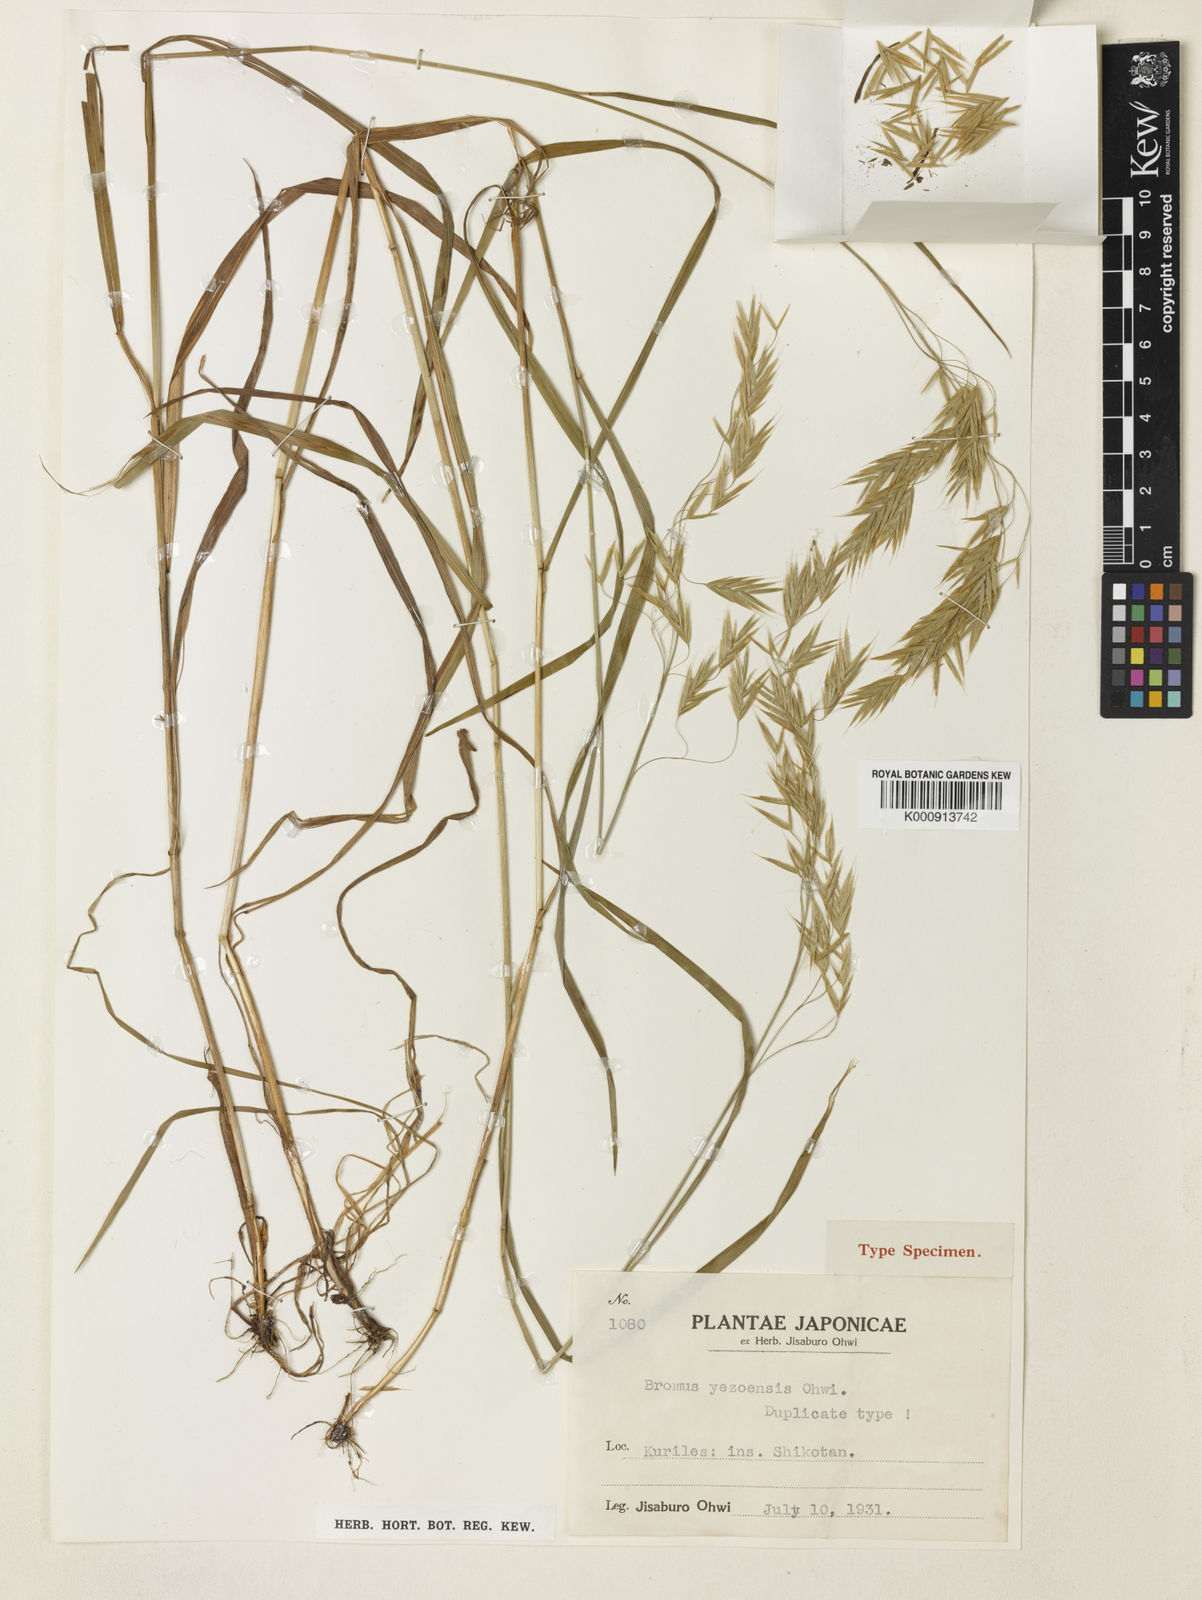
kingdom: Plantae
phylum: Tracheophyta
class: Liliopsida
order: Poales
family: Poaceae
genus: Bromus
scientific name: Bromus ciliatus
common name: Fringe brome
